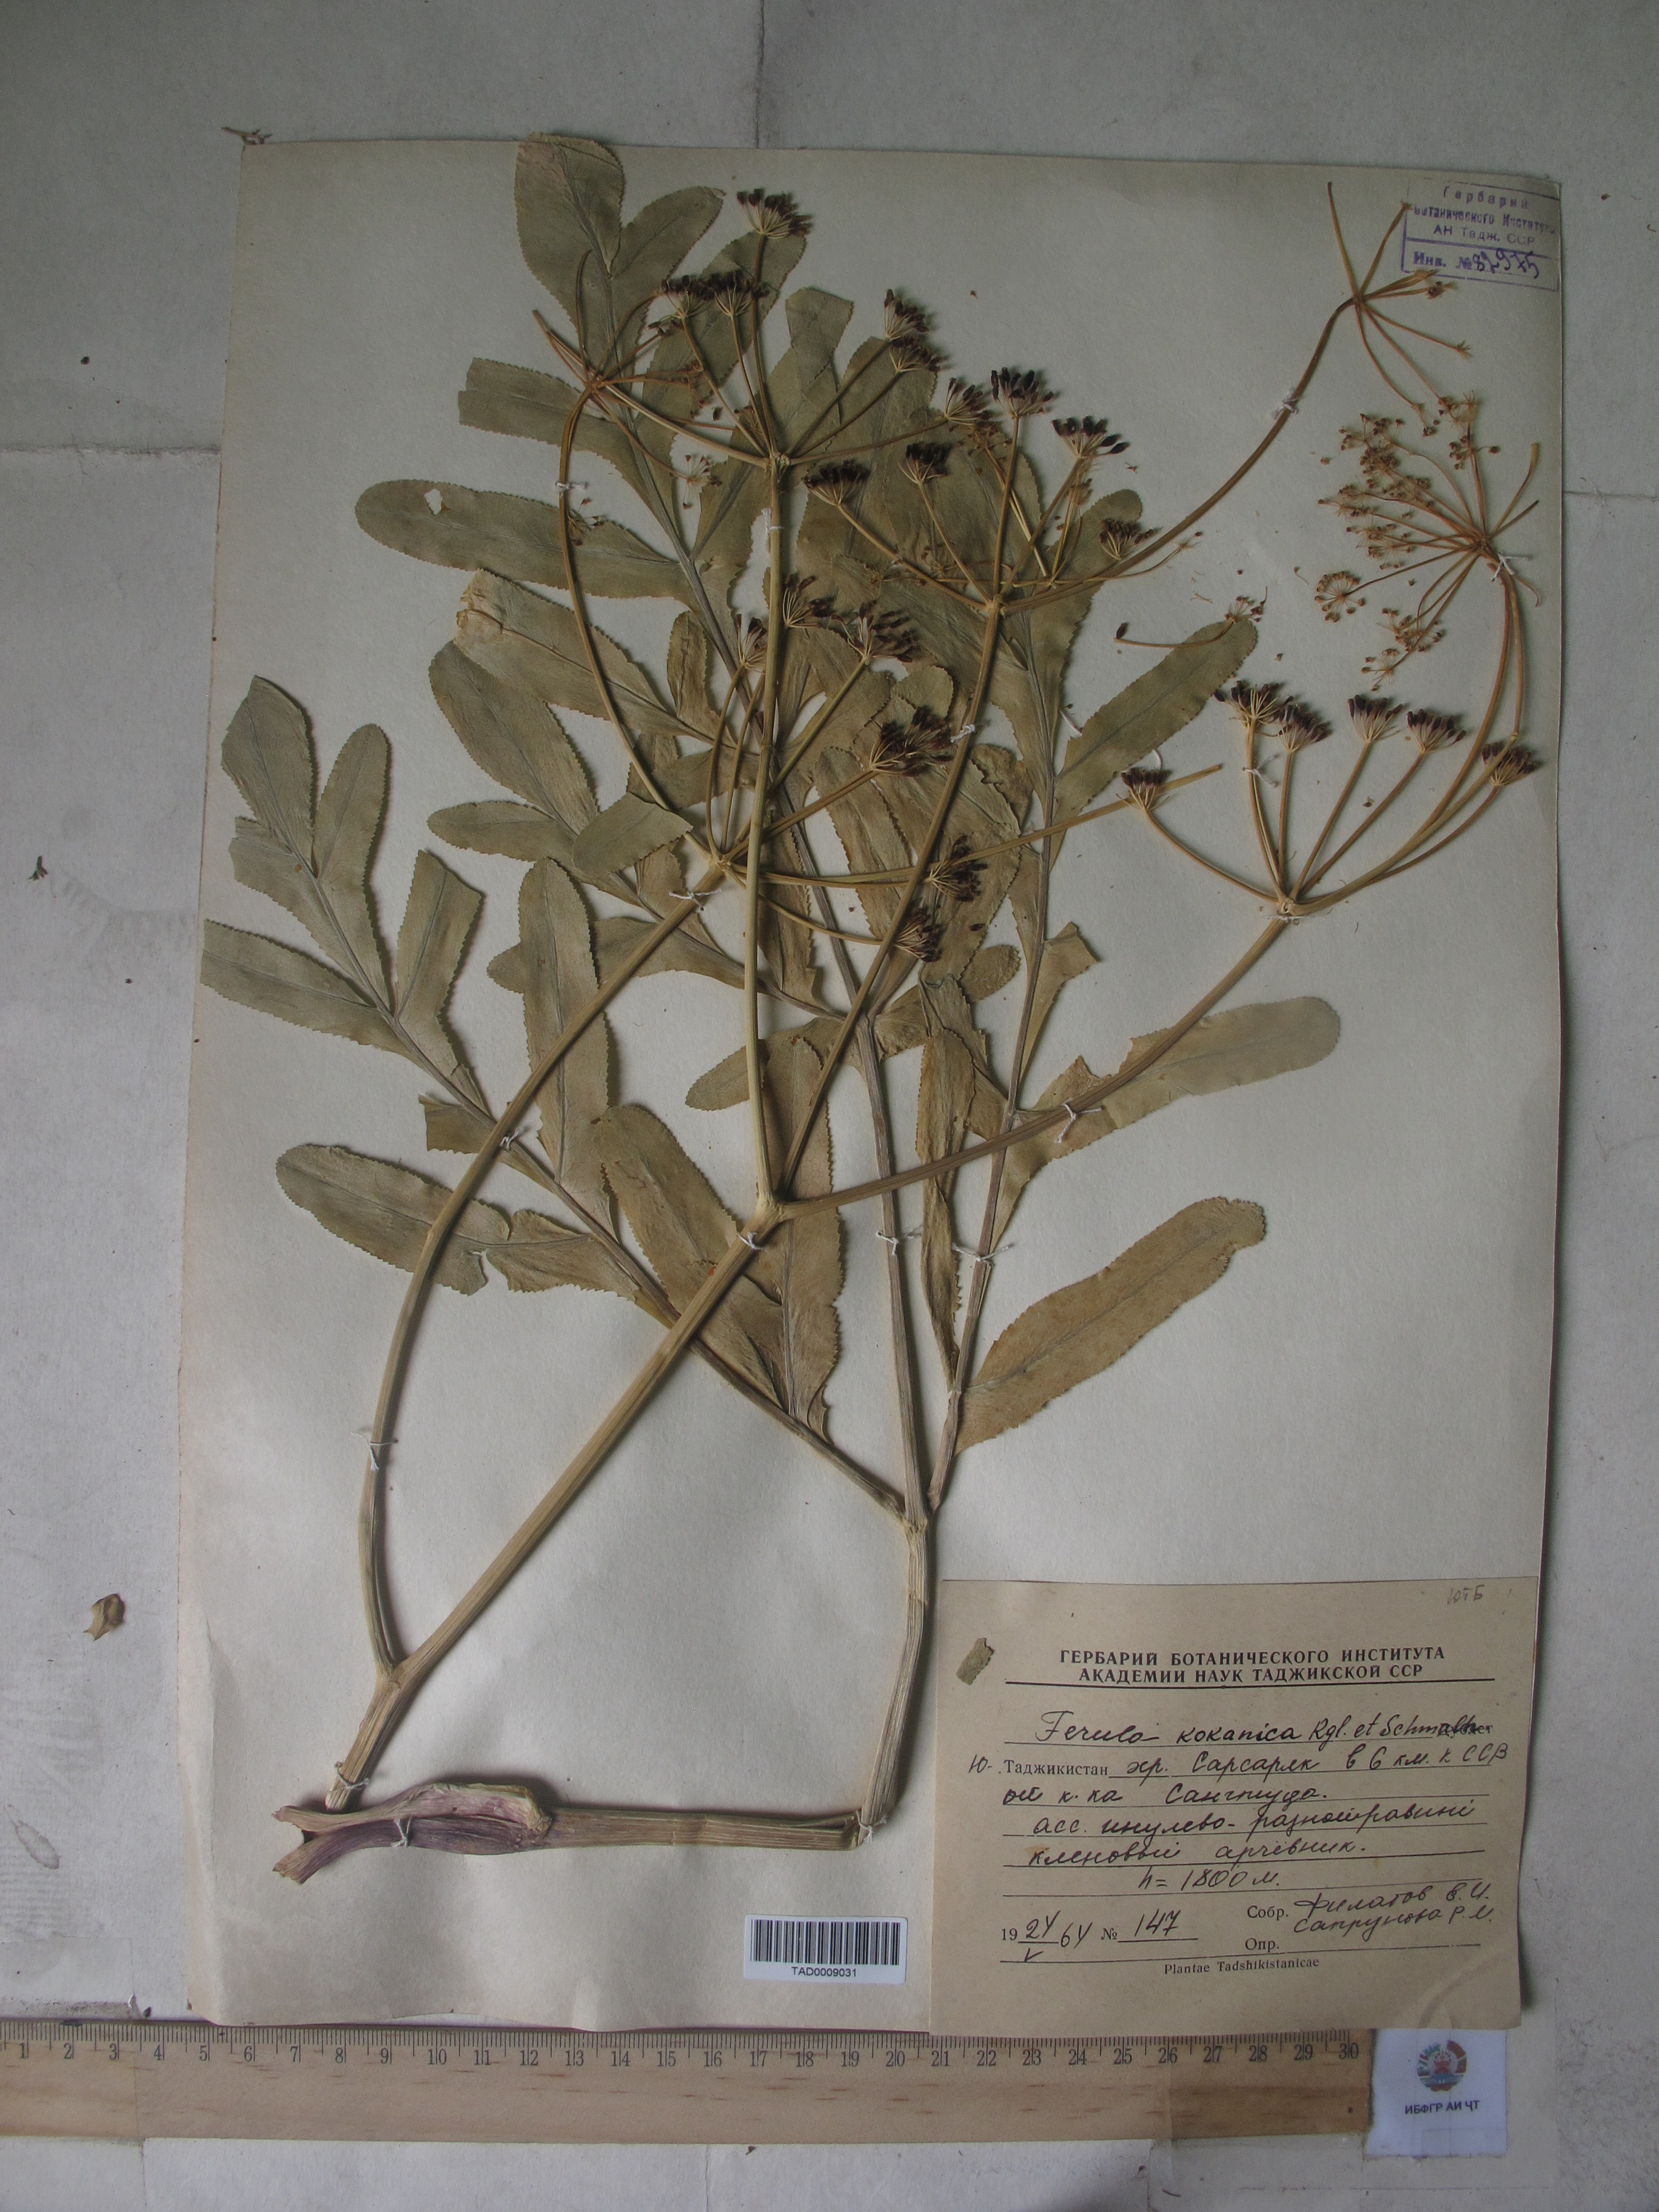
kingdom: Plantae
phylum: Tracheophyta
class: Magnoliopsida
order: Apiales
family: Apiaceae
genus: Ferula
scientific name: Ferula kokanica
